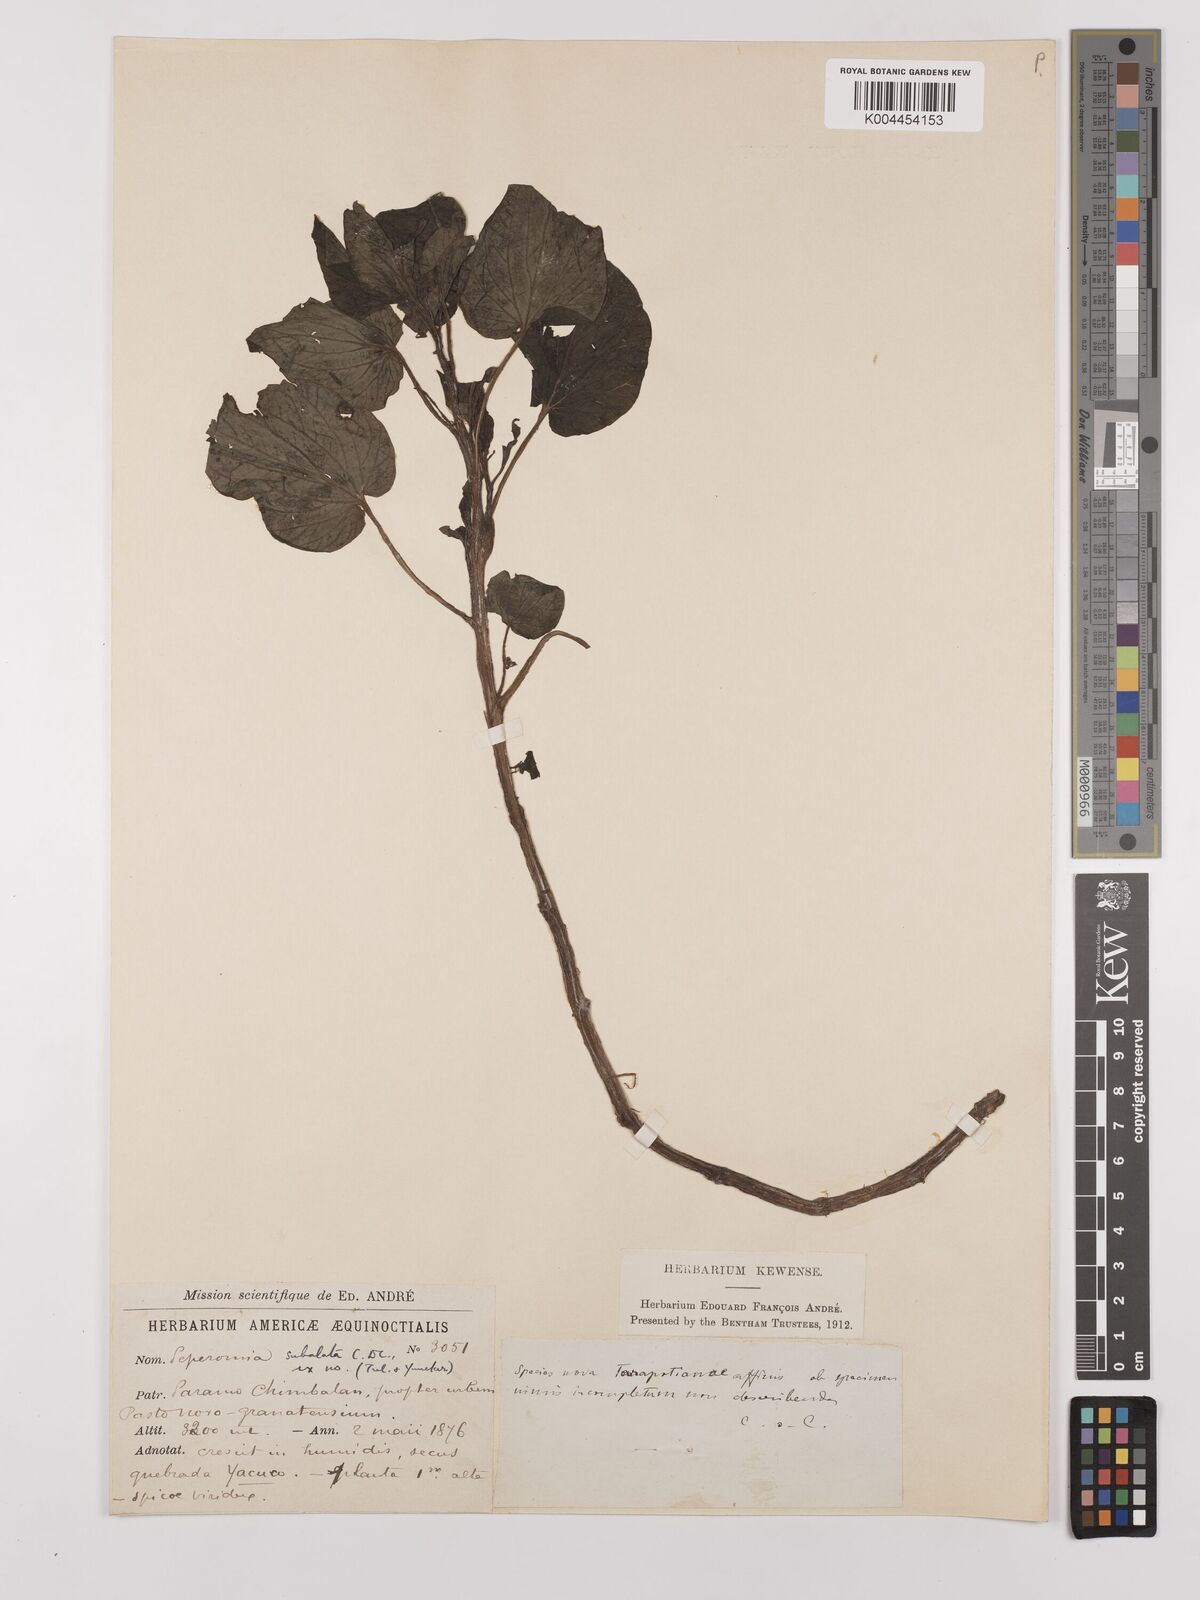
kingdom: Plantae
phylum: Tracheophyta
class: Magnoliopsida
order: Piperales
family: Piperaceae
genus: Peperomia
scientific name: Peperomia subalata
